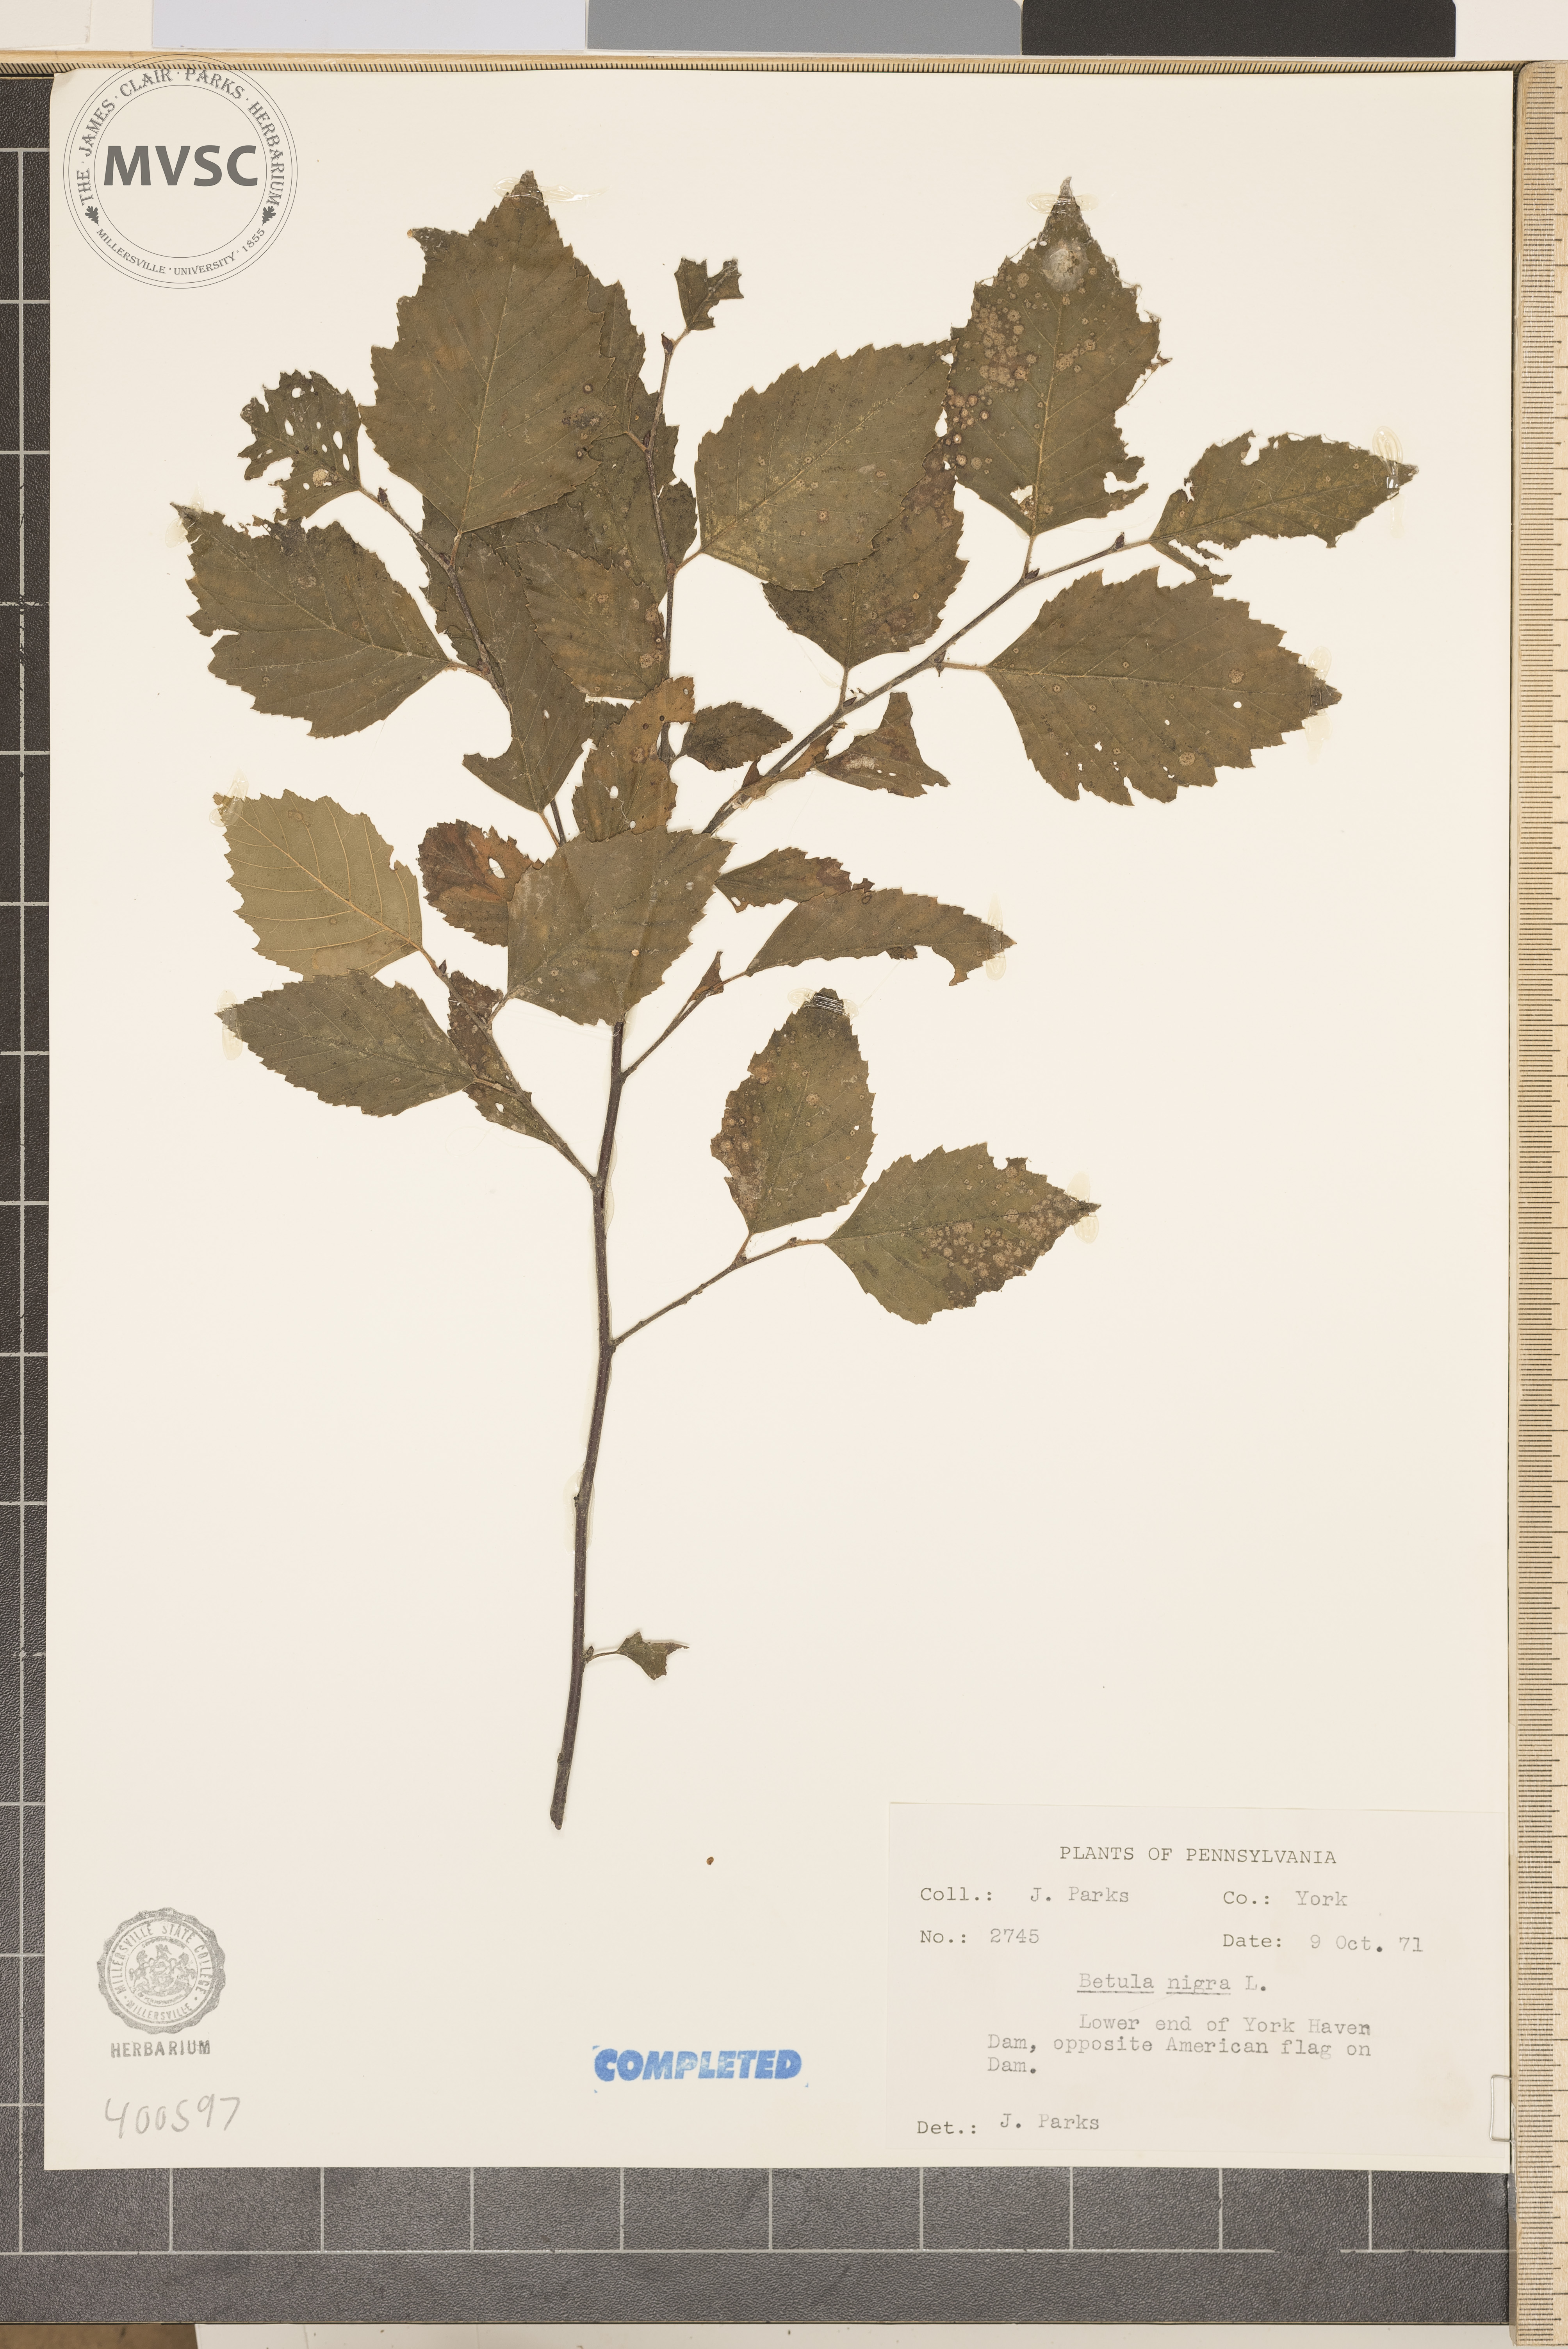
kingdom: Plantae
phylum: Tracheophyta
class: Magnoliopsida
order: Fagales
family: Betulaceae
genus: Betula
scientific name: Betula nigra
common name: river birch
